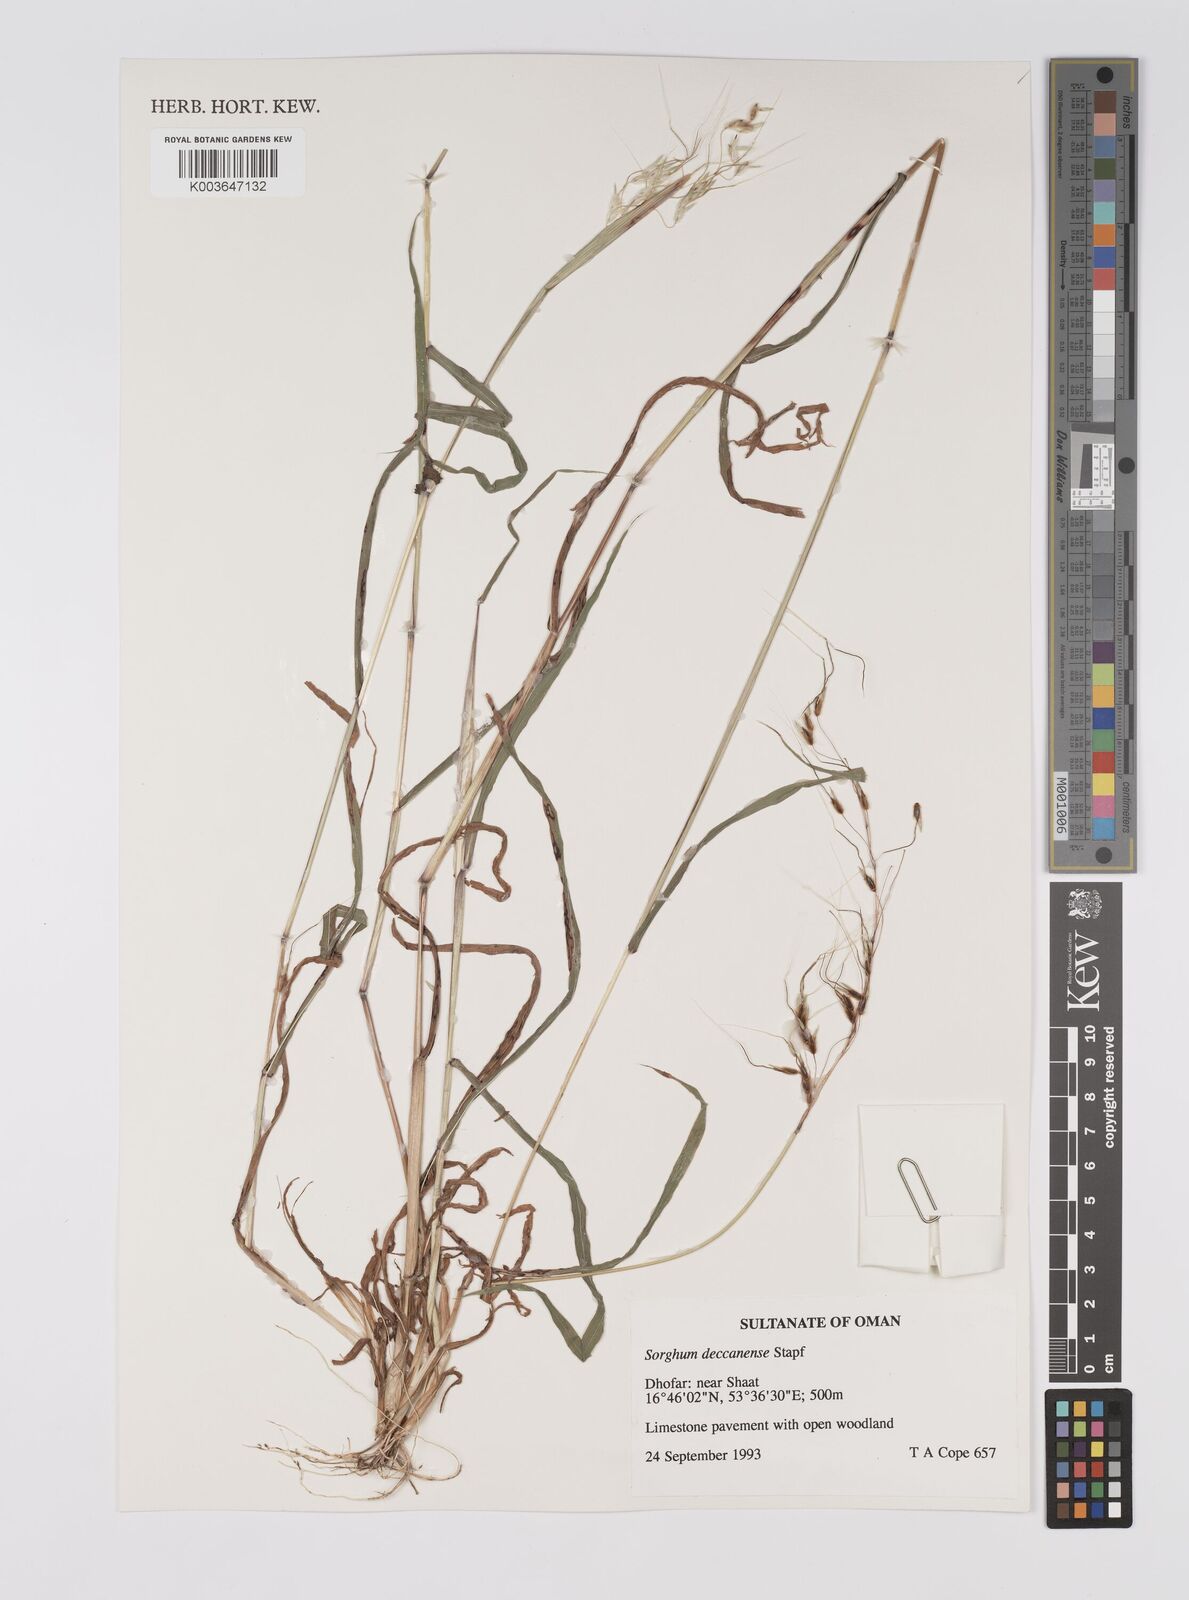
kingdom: Plantae
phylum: Tracheophyta
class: Liliopsida
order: Poales
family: Poaceae
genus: Sarga
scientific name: Sarga purpureosericea
